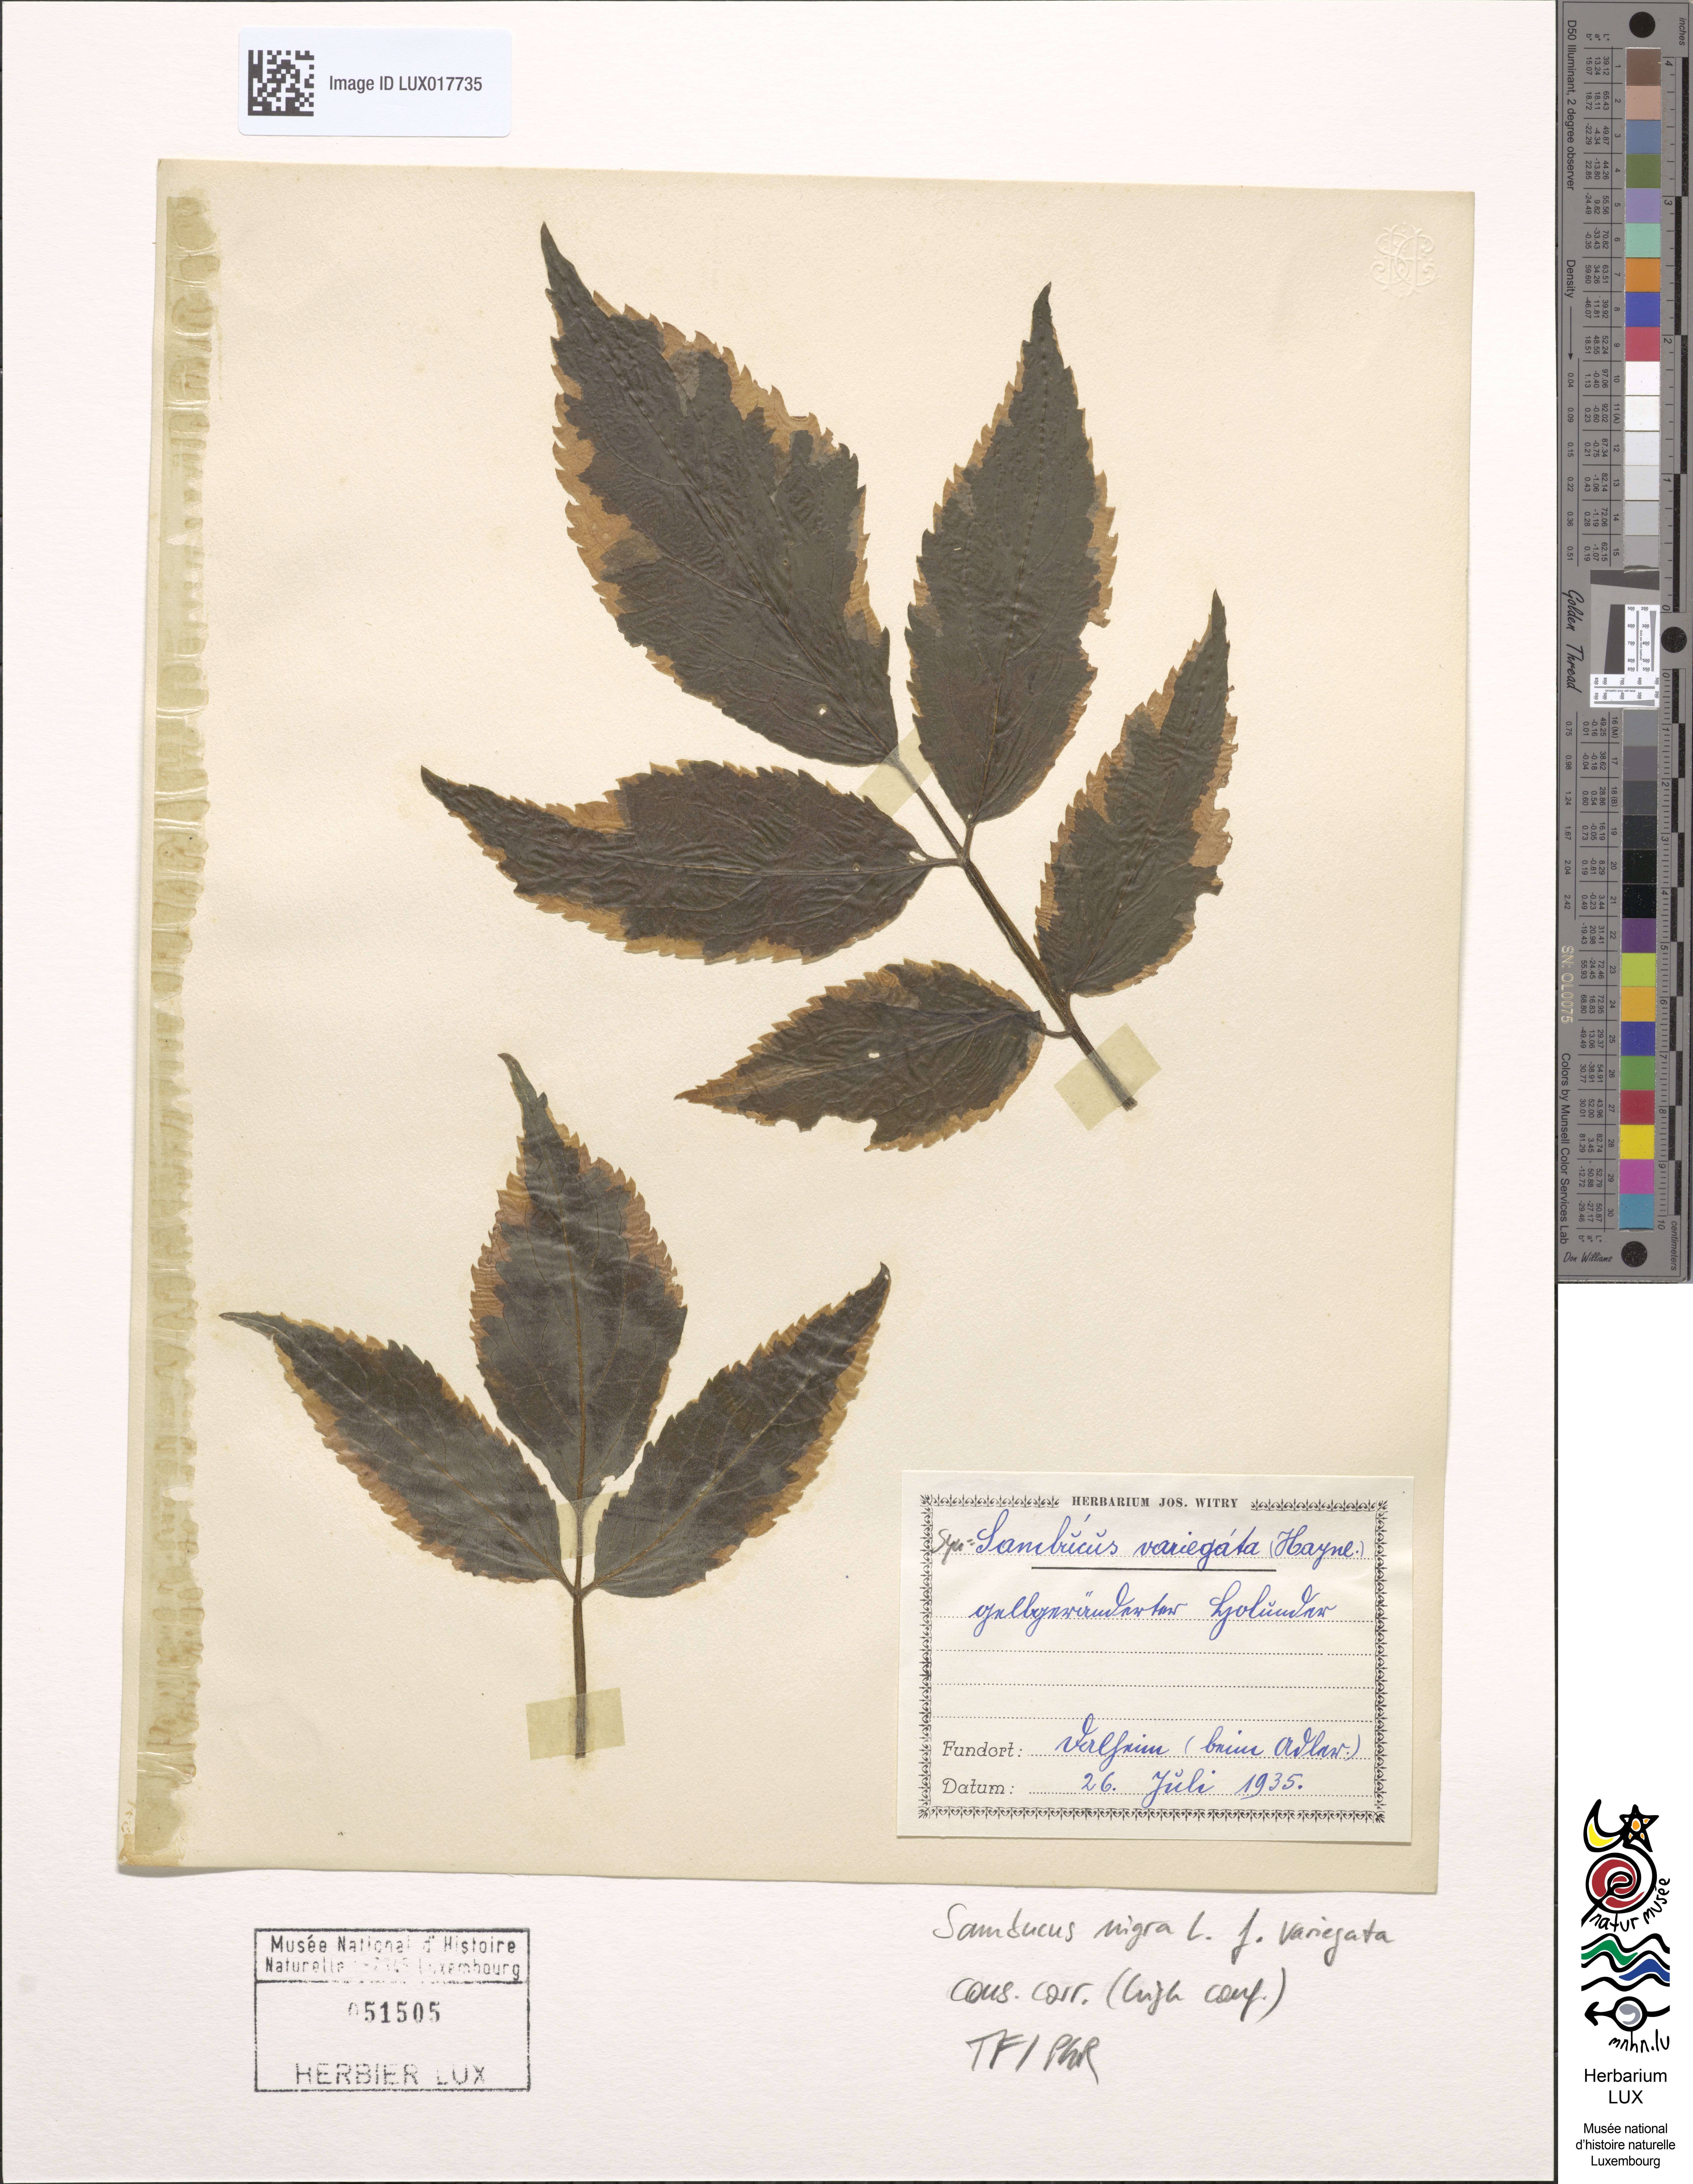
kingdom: Plantae
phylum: Tracheophyta
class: Magnoliopsida
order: Dipsacales
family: Viburnaceae
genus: Sambucus
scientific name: Sambucus nigra
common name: Elder
